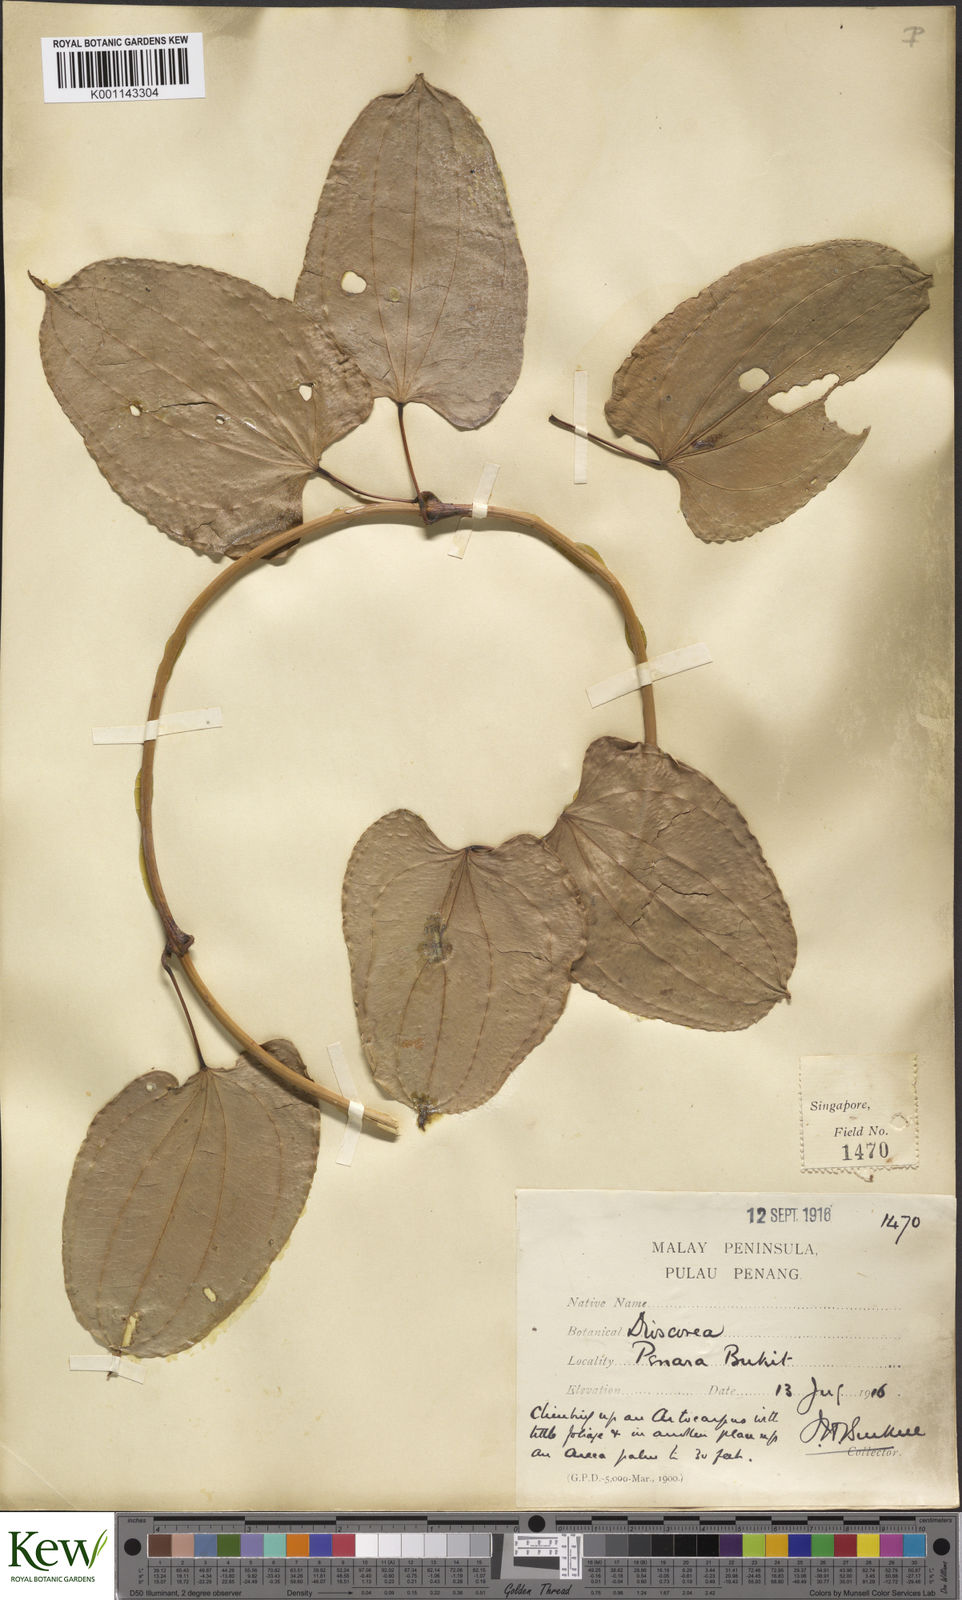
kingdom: Plantae
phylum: Tracheophyta
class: Liliopsida
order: Dioscoreales
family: Dioscoreaceae
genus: Dioscorea
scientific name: Dioscorea
